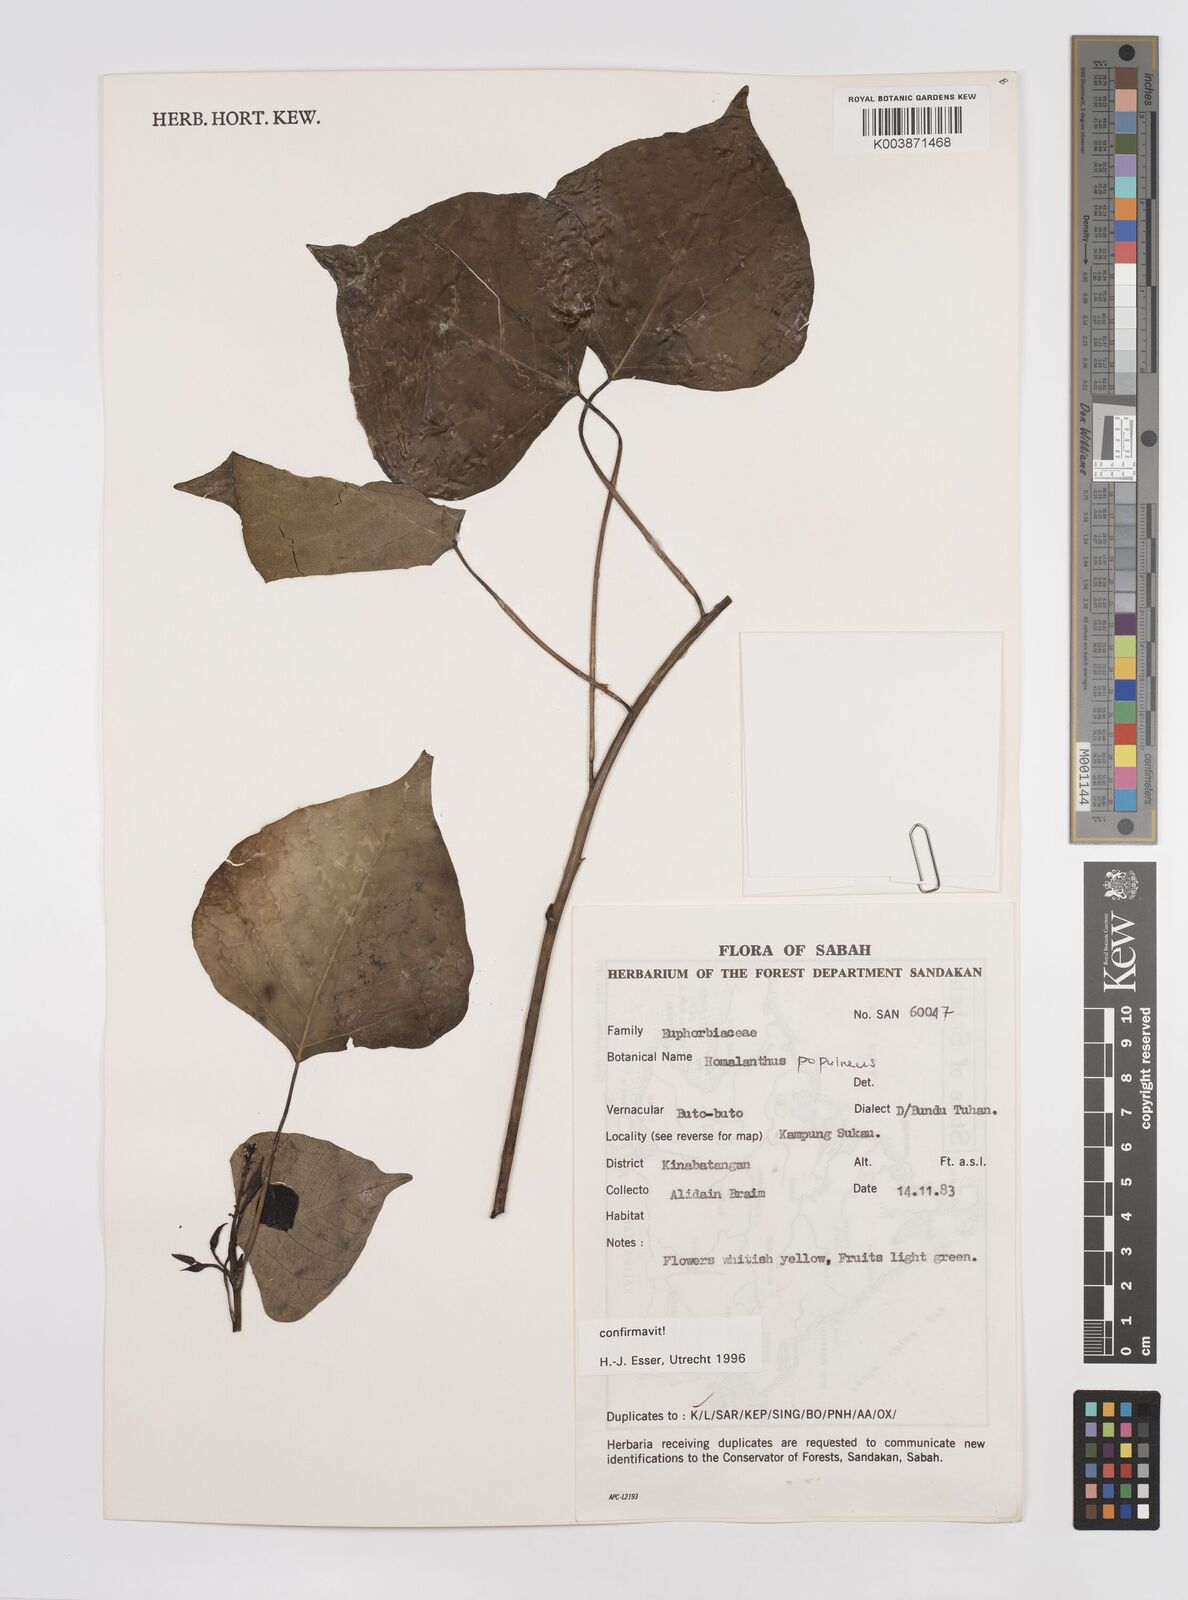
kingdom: Plantae
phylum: Tracheophyta
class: Magnoliopsida
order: Malpighiales
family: Euphorbiaceae
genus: Homalanthus
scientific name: Homalanthus populneus
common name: Spurge
